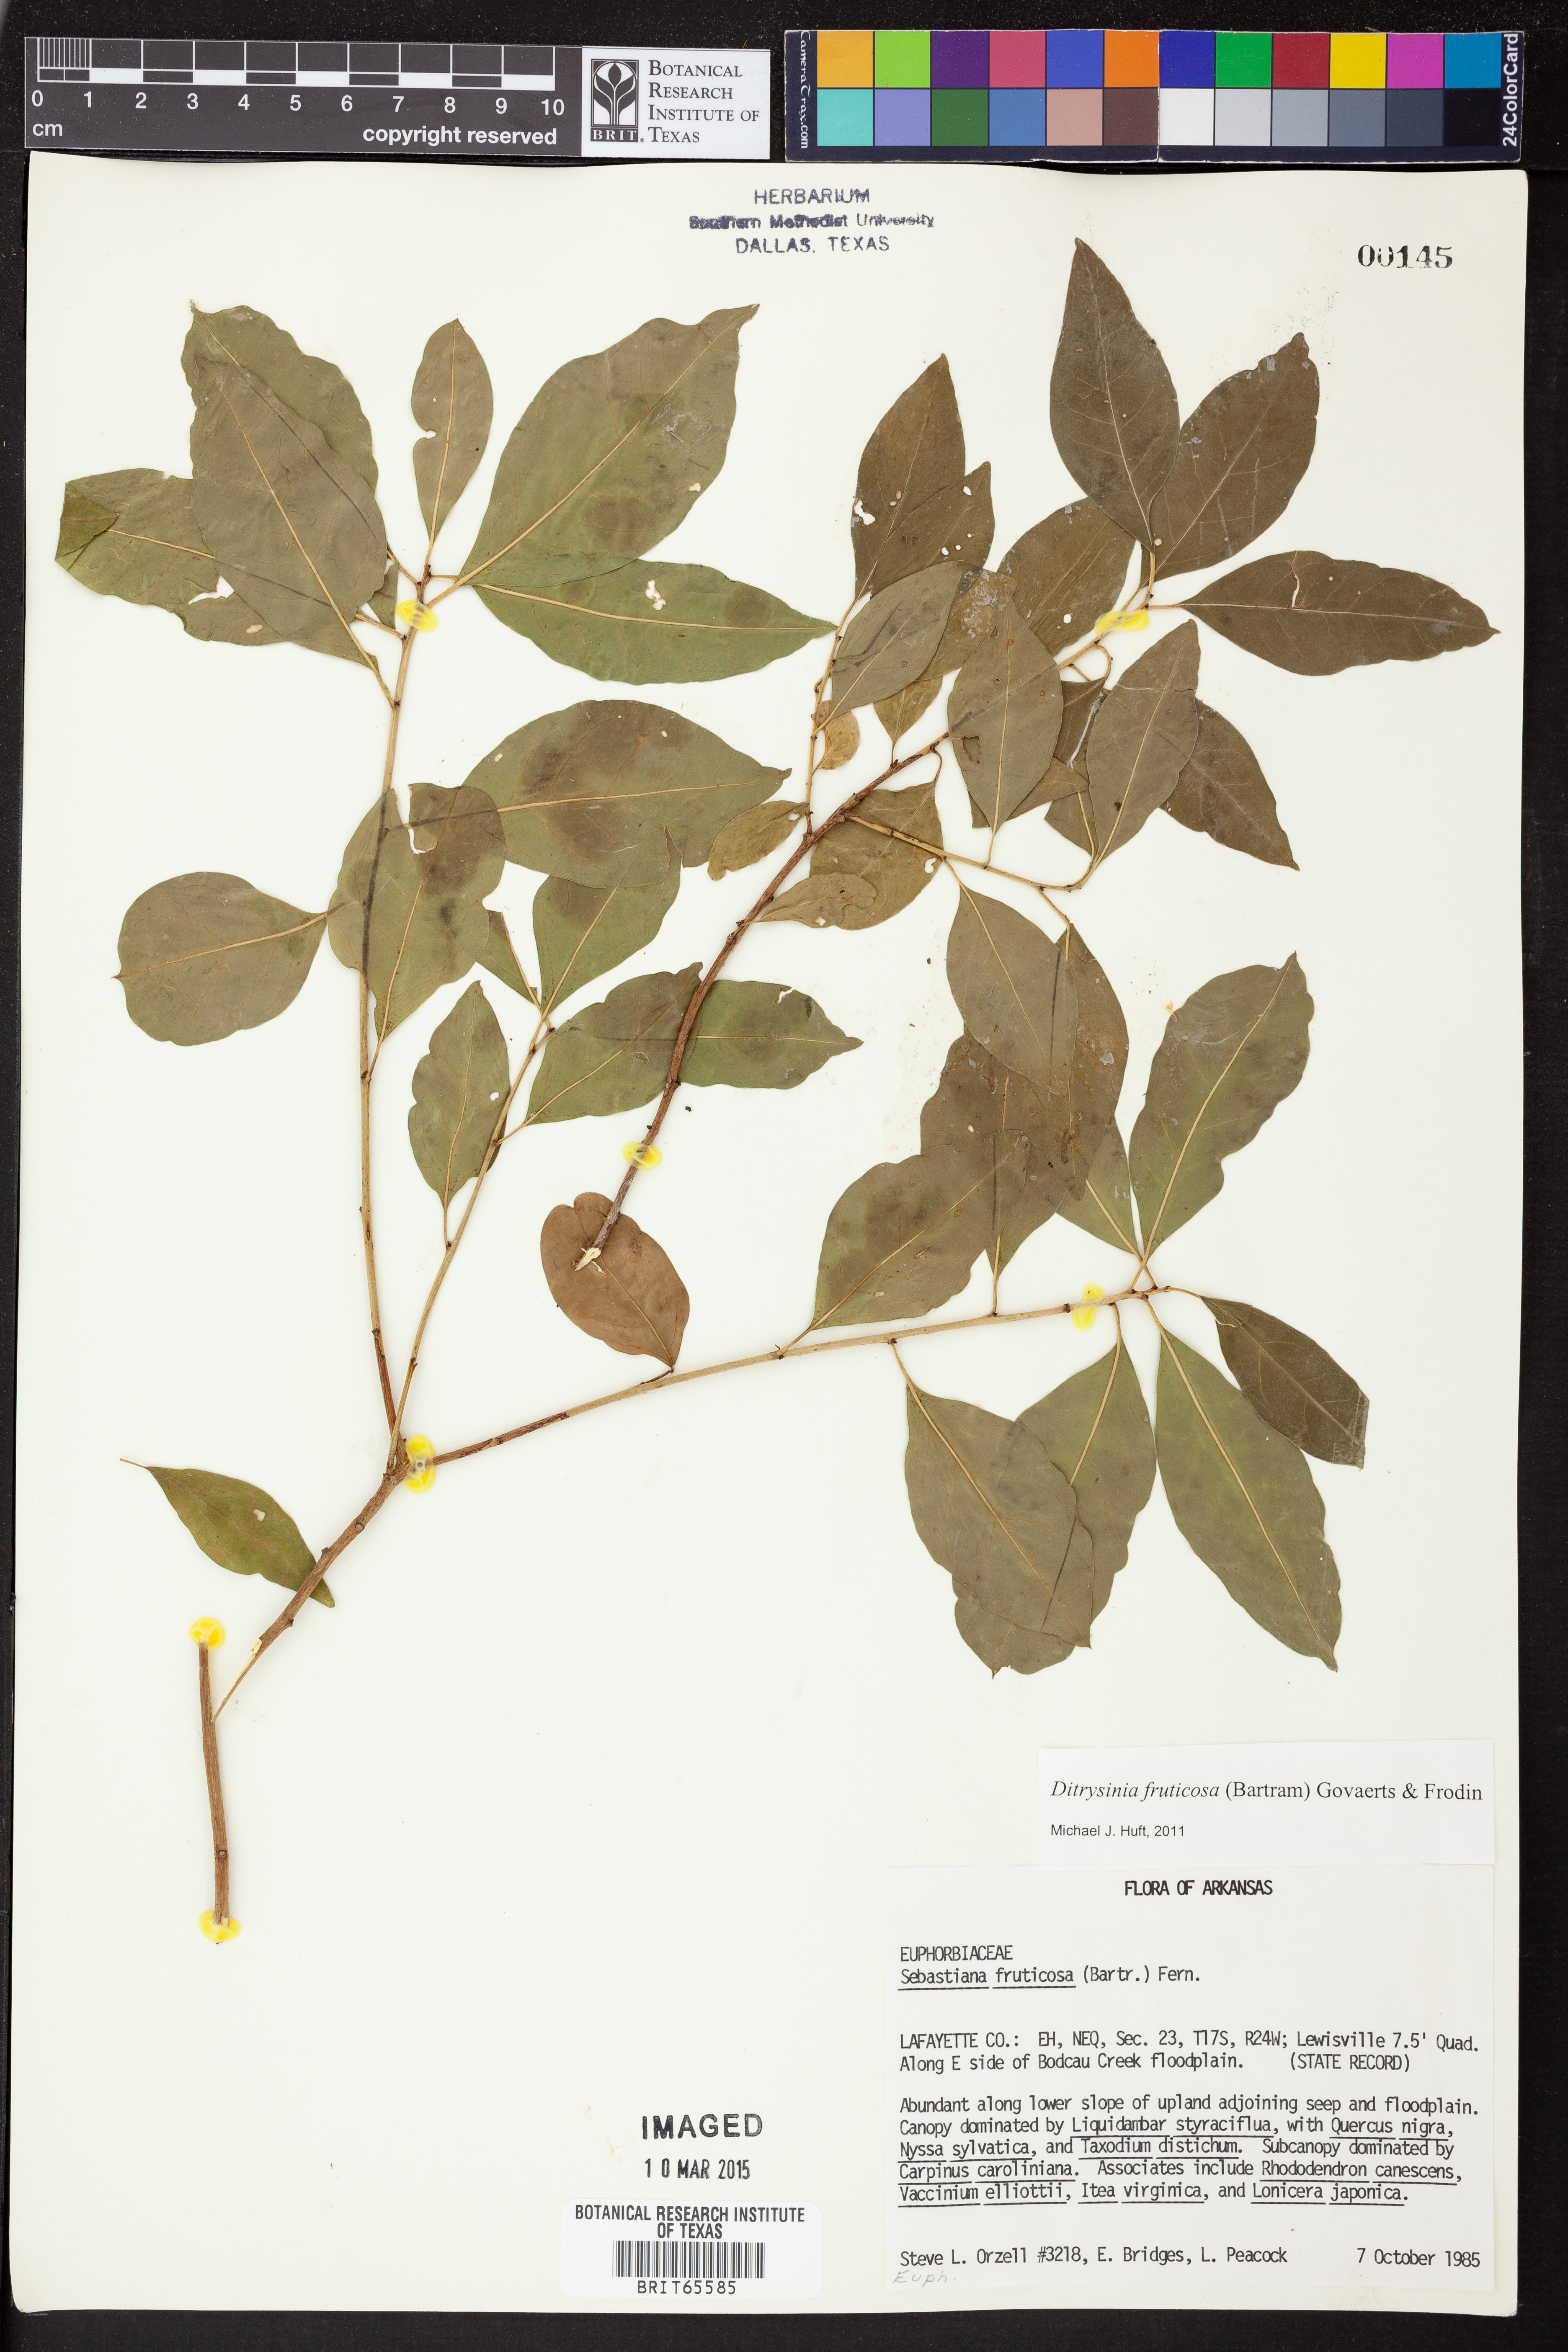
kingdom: Plantae
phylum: Tracheophyta
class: Magnoliopsida
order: Malpighiales
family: Euphorbiaceae
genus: Ditrysinia
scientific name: Ditrysinia fruticosa
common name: Gulf sebastian-bush
